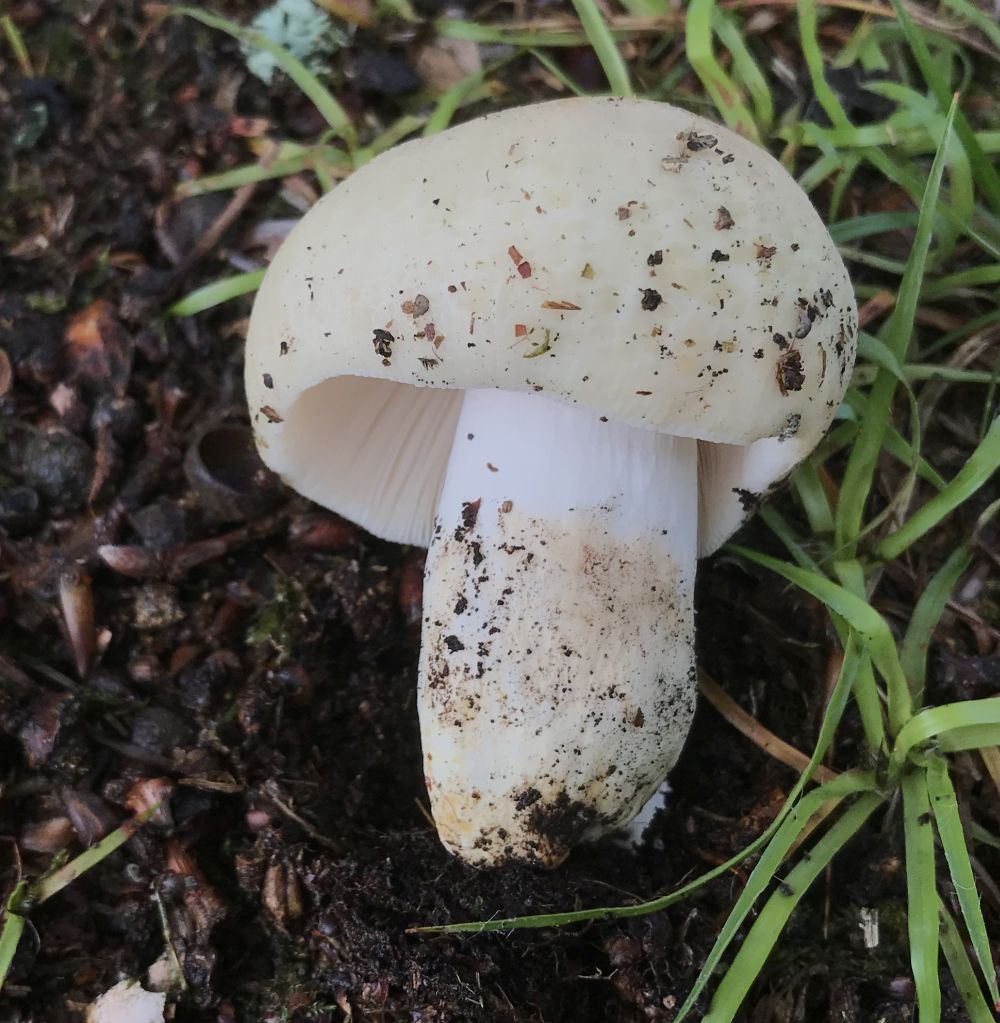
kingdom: Fungi
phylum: Basidiomycota
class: Agaricomycetes
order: Russulales
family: Russulaceae
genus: Russula
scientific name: Russula
